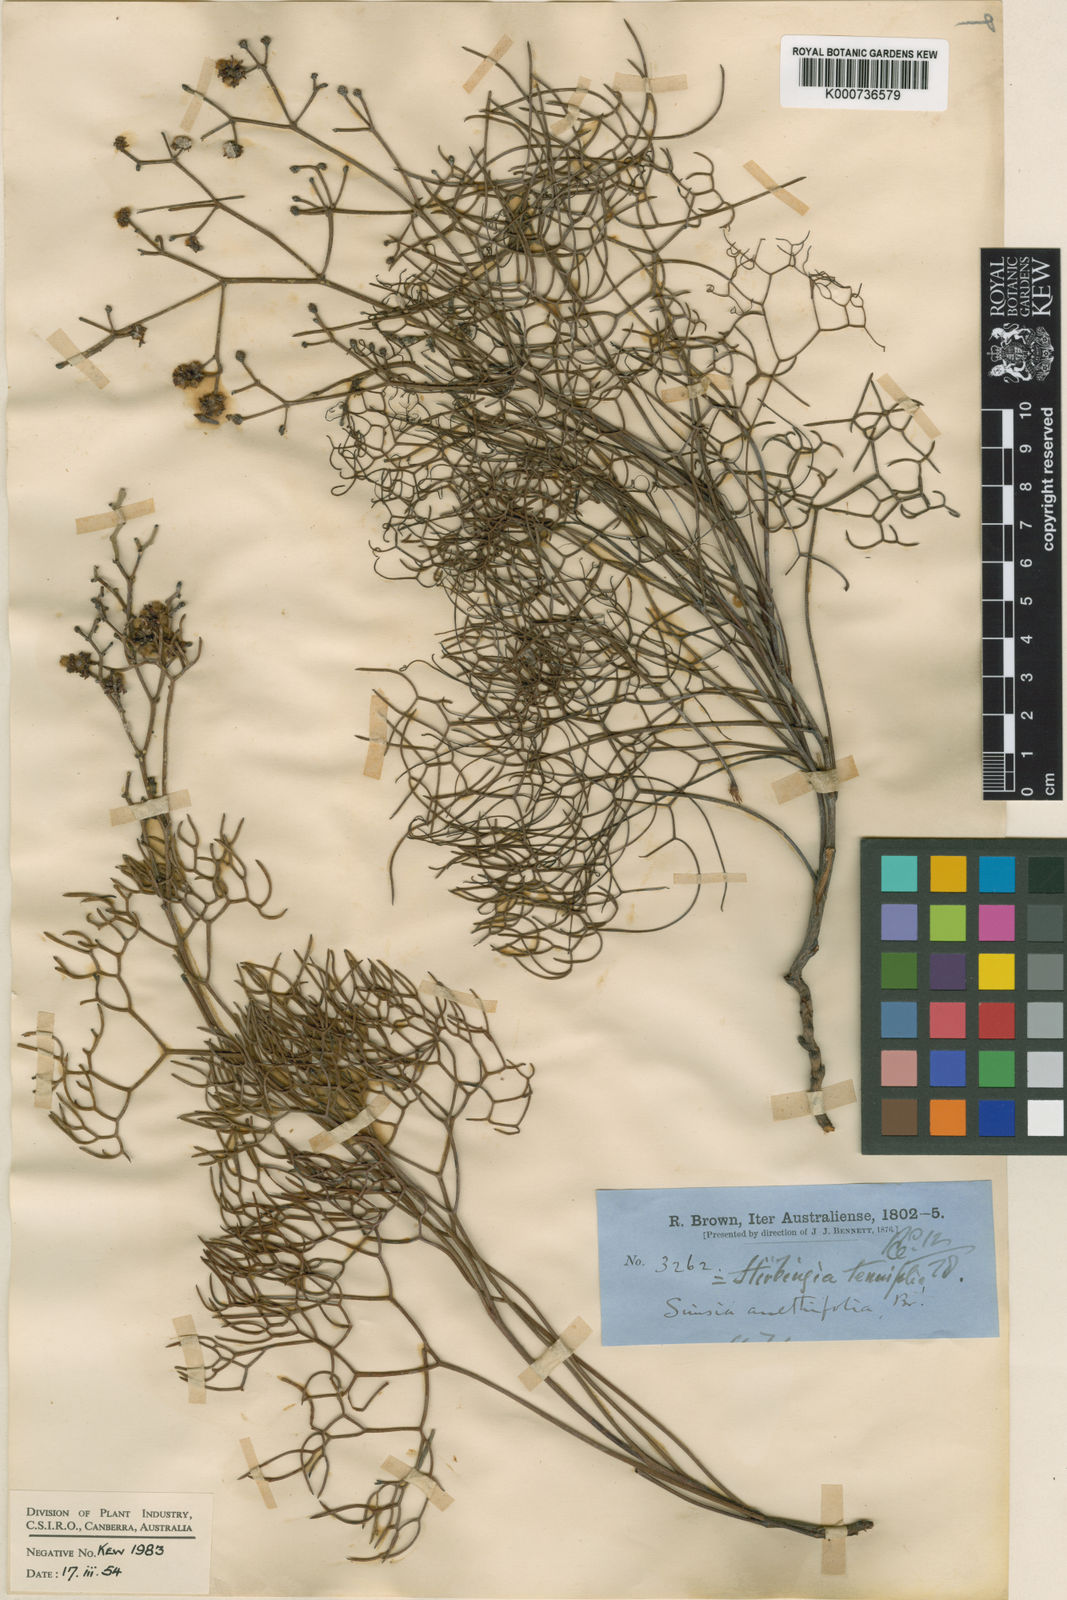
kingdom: Plantae
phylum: Tracheophyta
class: Magnoliopsida
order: Proteales
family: Proteaceae
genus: Stirlingia
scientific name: Stirlingia anethifolia
